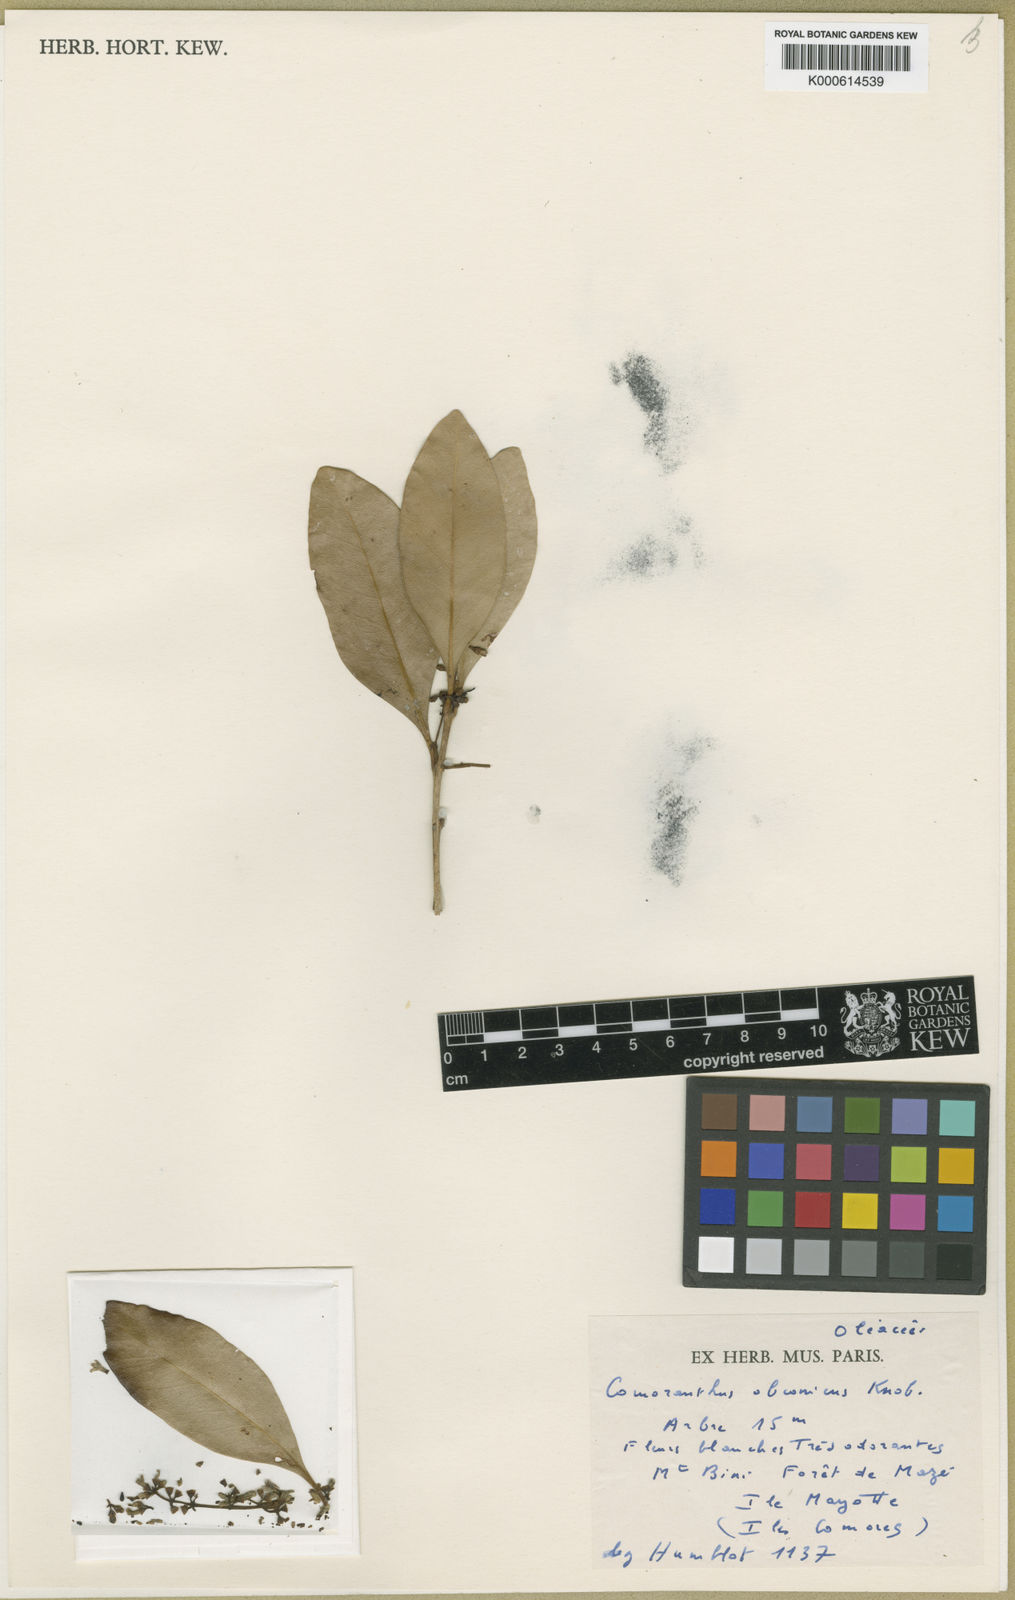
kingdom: Plantae
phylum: Tracheophyta
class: Magnoliopsida
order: Lamiales
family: Oleaceae
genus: Comoranthus
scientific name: Comoranthus obconicus
